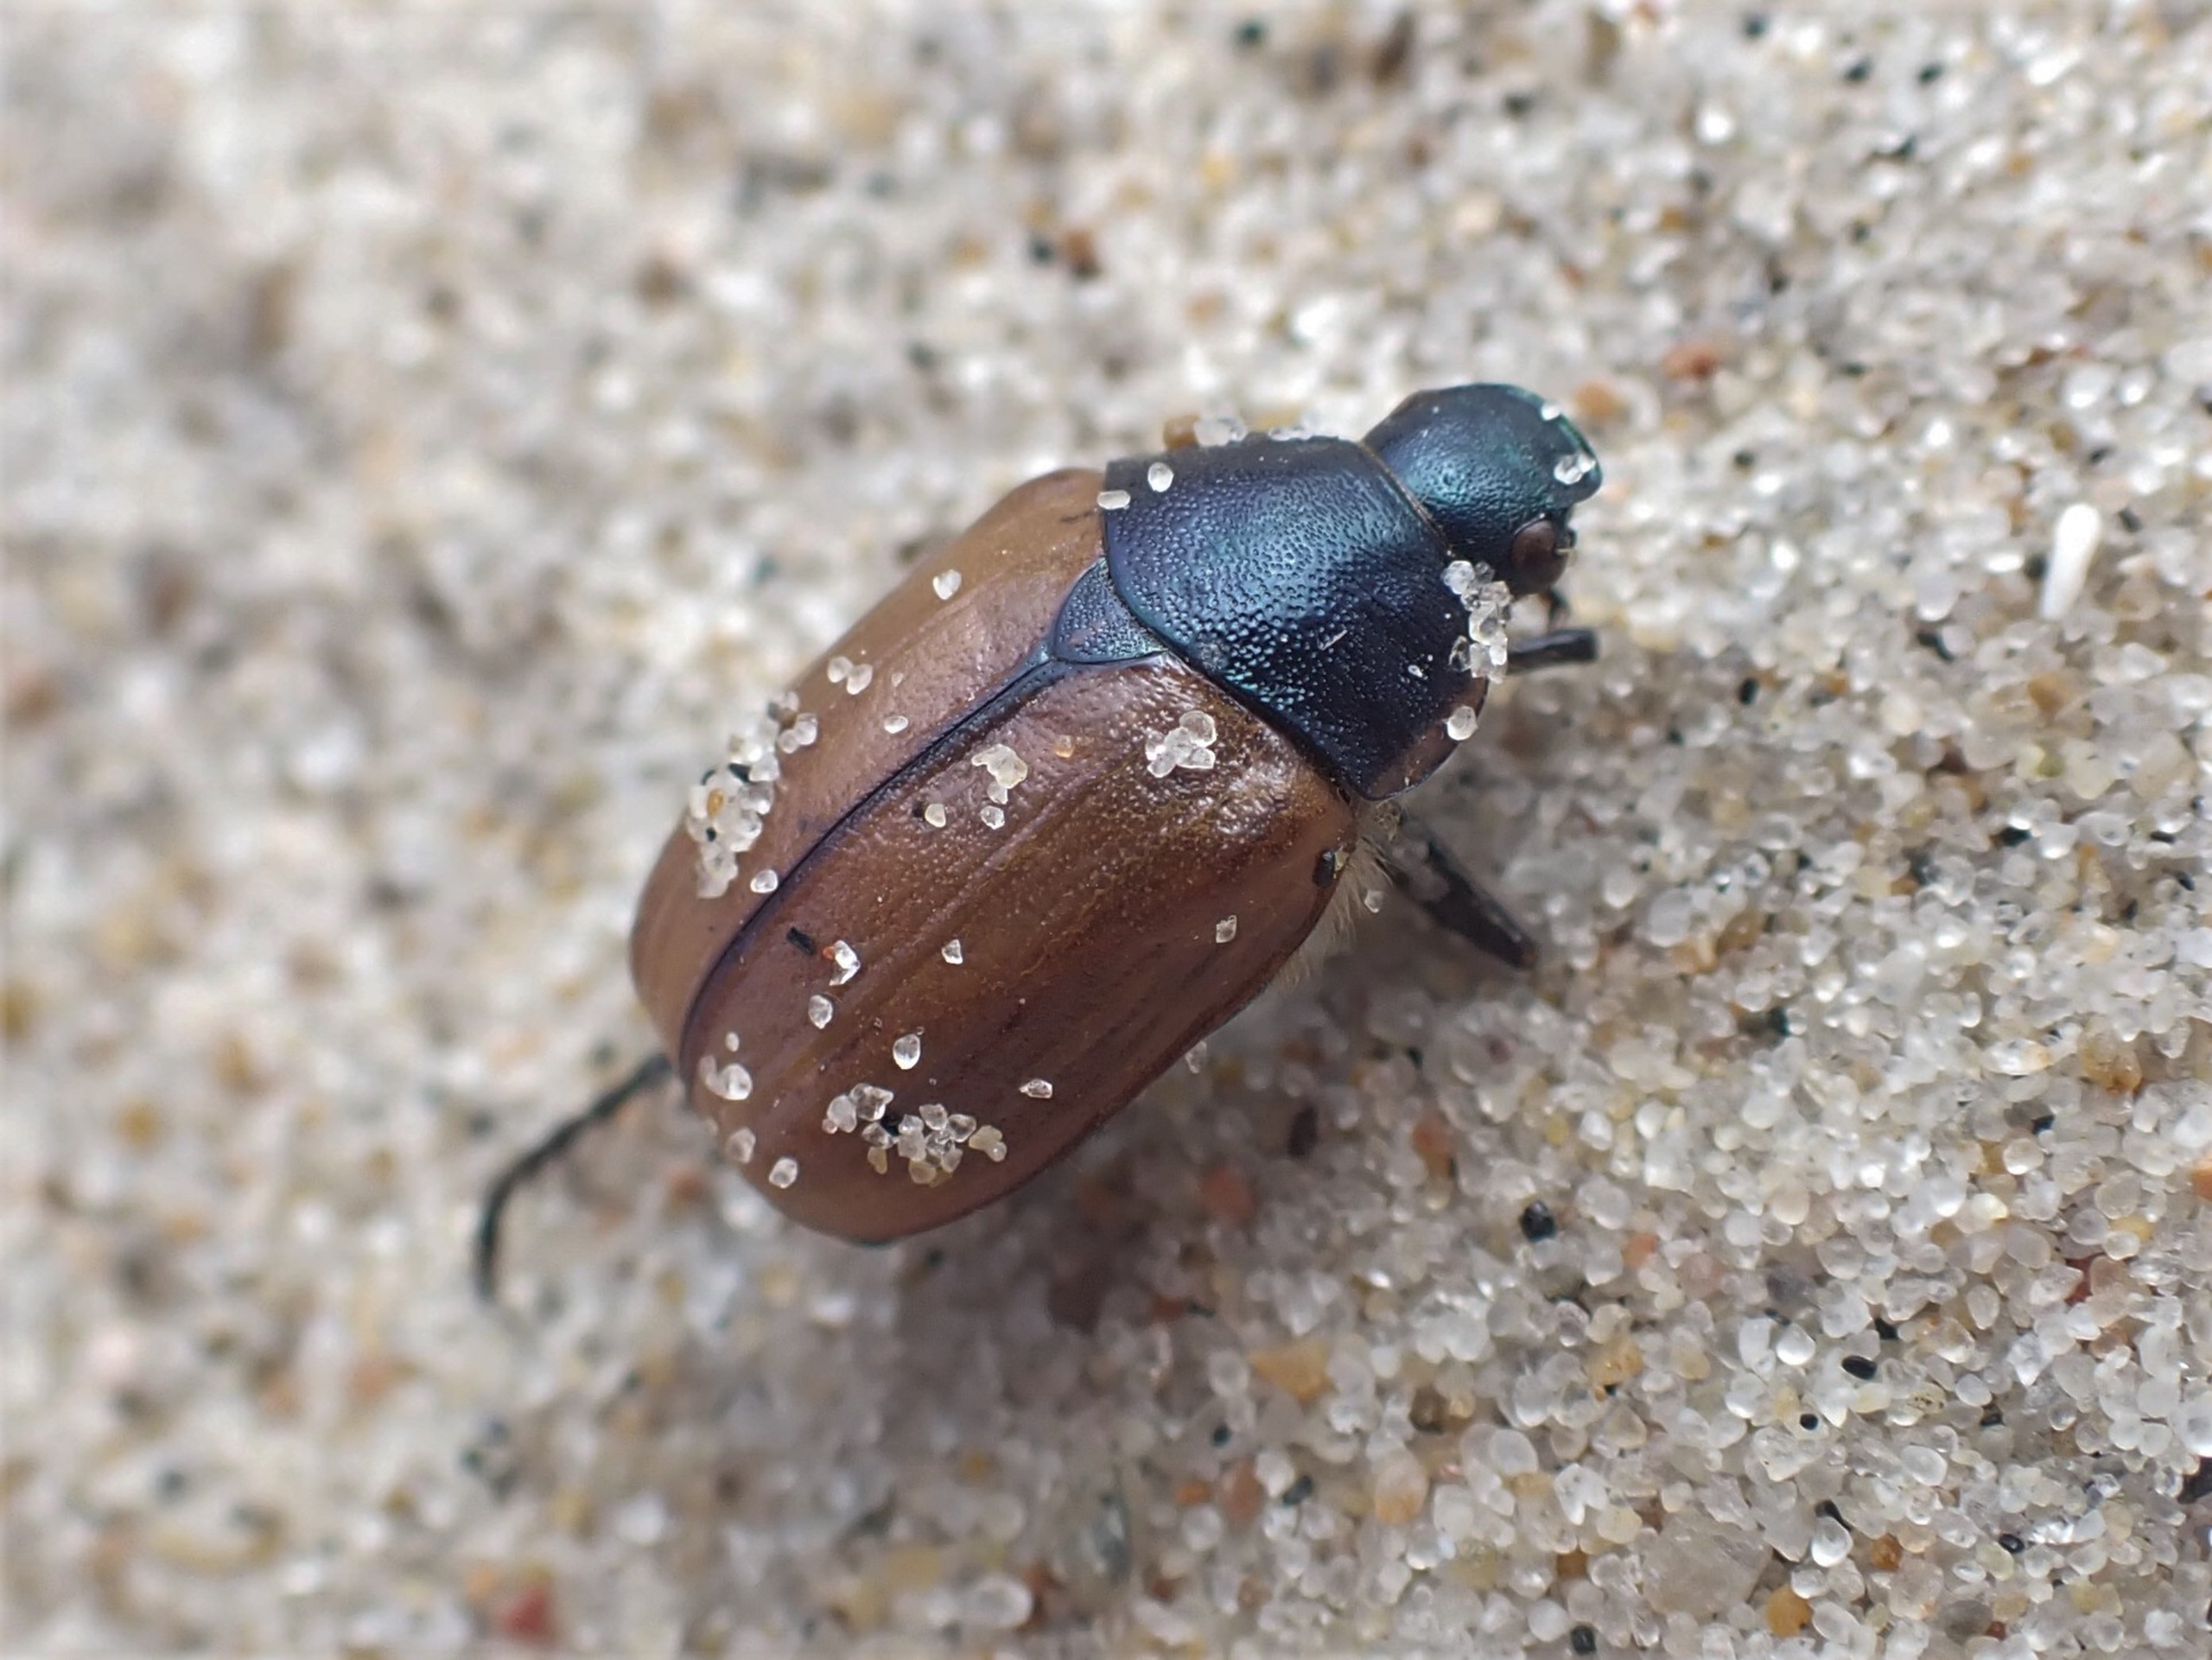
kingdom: Animalia
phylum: Arthropoda
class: Insecta
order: Coleoptera
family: Scarabaeidae
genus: Anomala
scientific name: Anomala dubia
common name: Klitoldenborre
